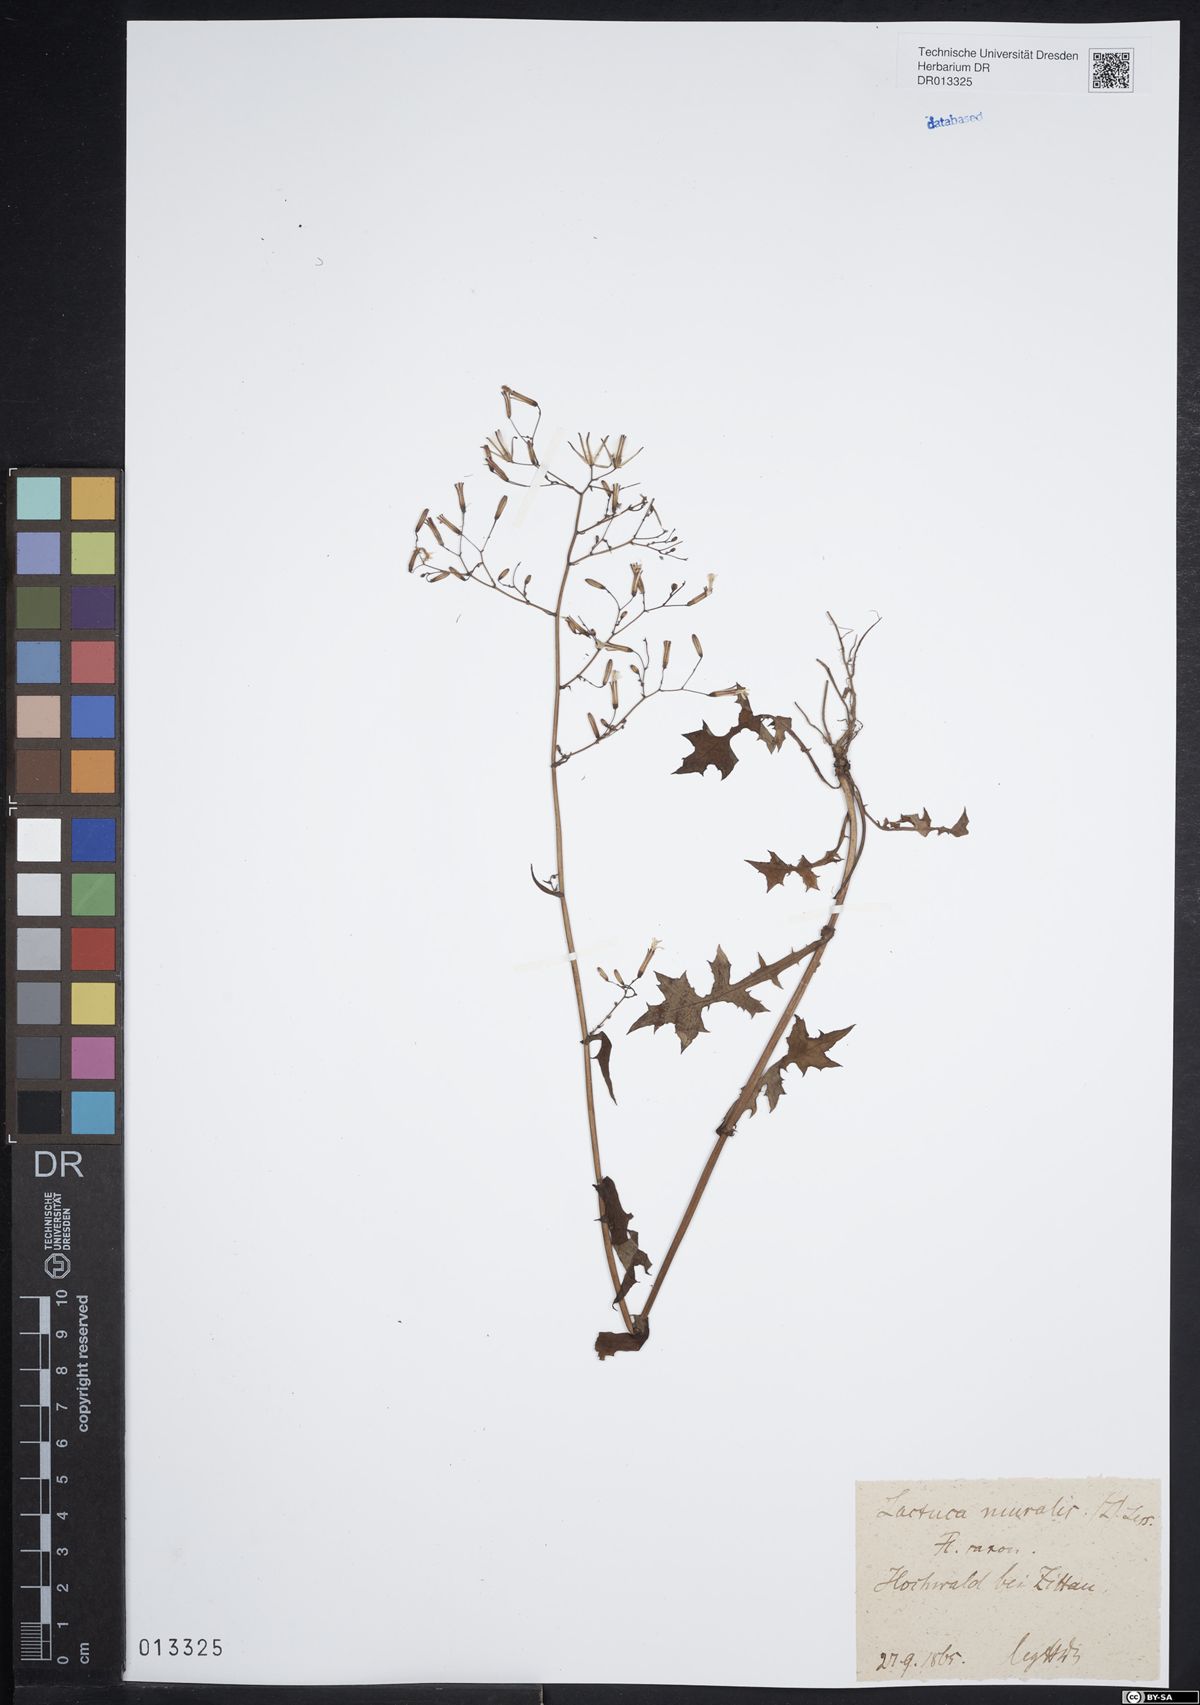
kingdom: Plantae
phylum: Tracheophyta
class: Magnoliopsida
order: Asterales
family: Asteraceae
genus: Mycelis
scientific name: Mycelis muralis
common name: Wall lettuce
